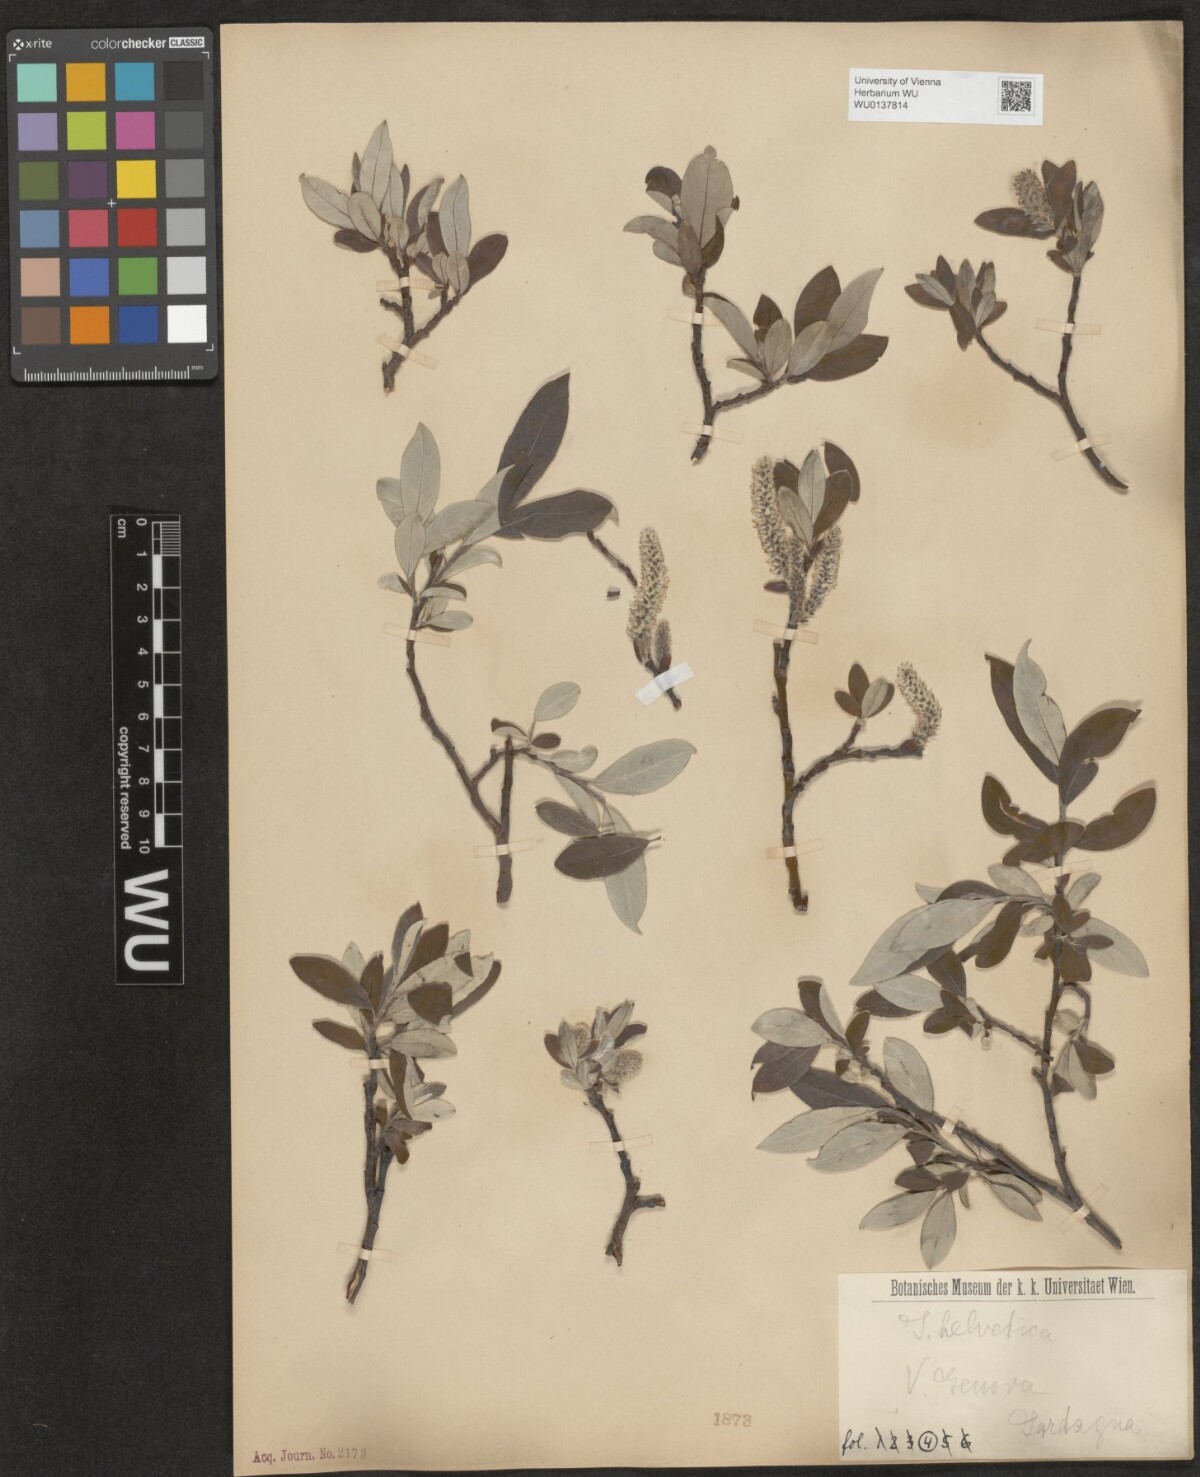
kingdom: Plantae
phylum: Tracheophyta
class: Magnoliopsida
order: Malpighiales
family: Salicaceae
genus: Salix
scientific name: Salix helvetica
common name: Swiss willow
